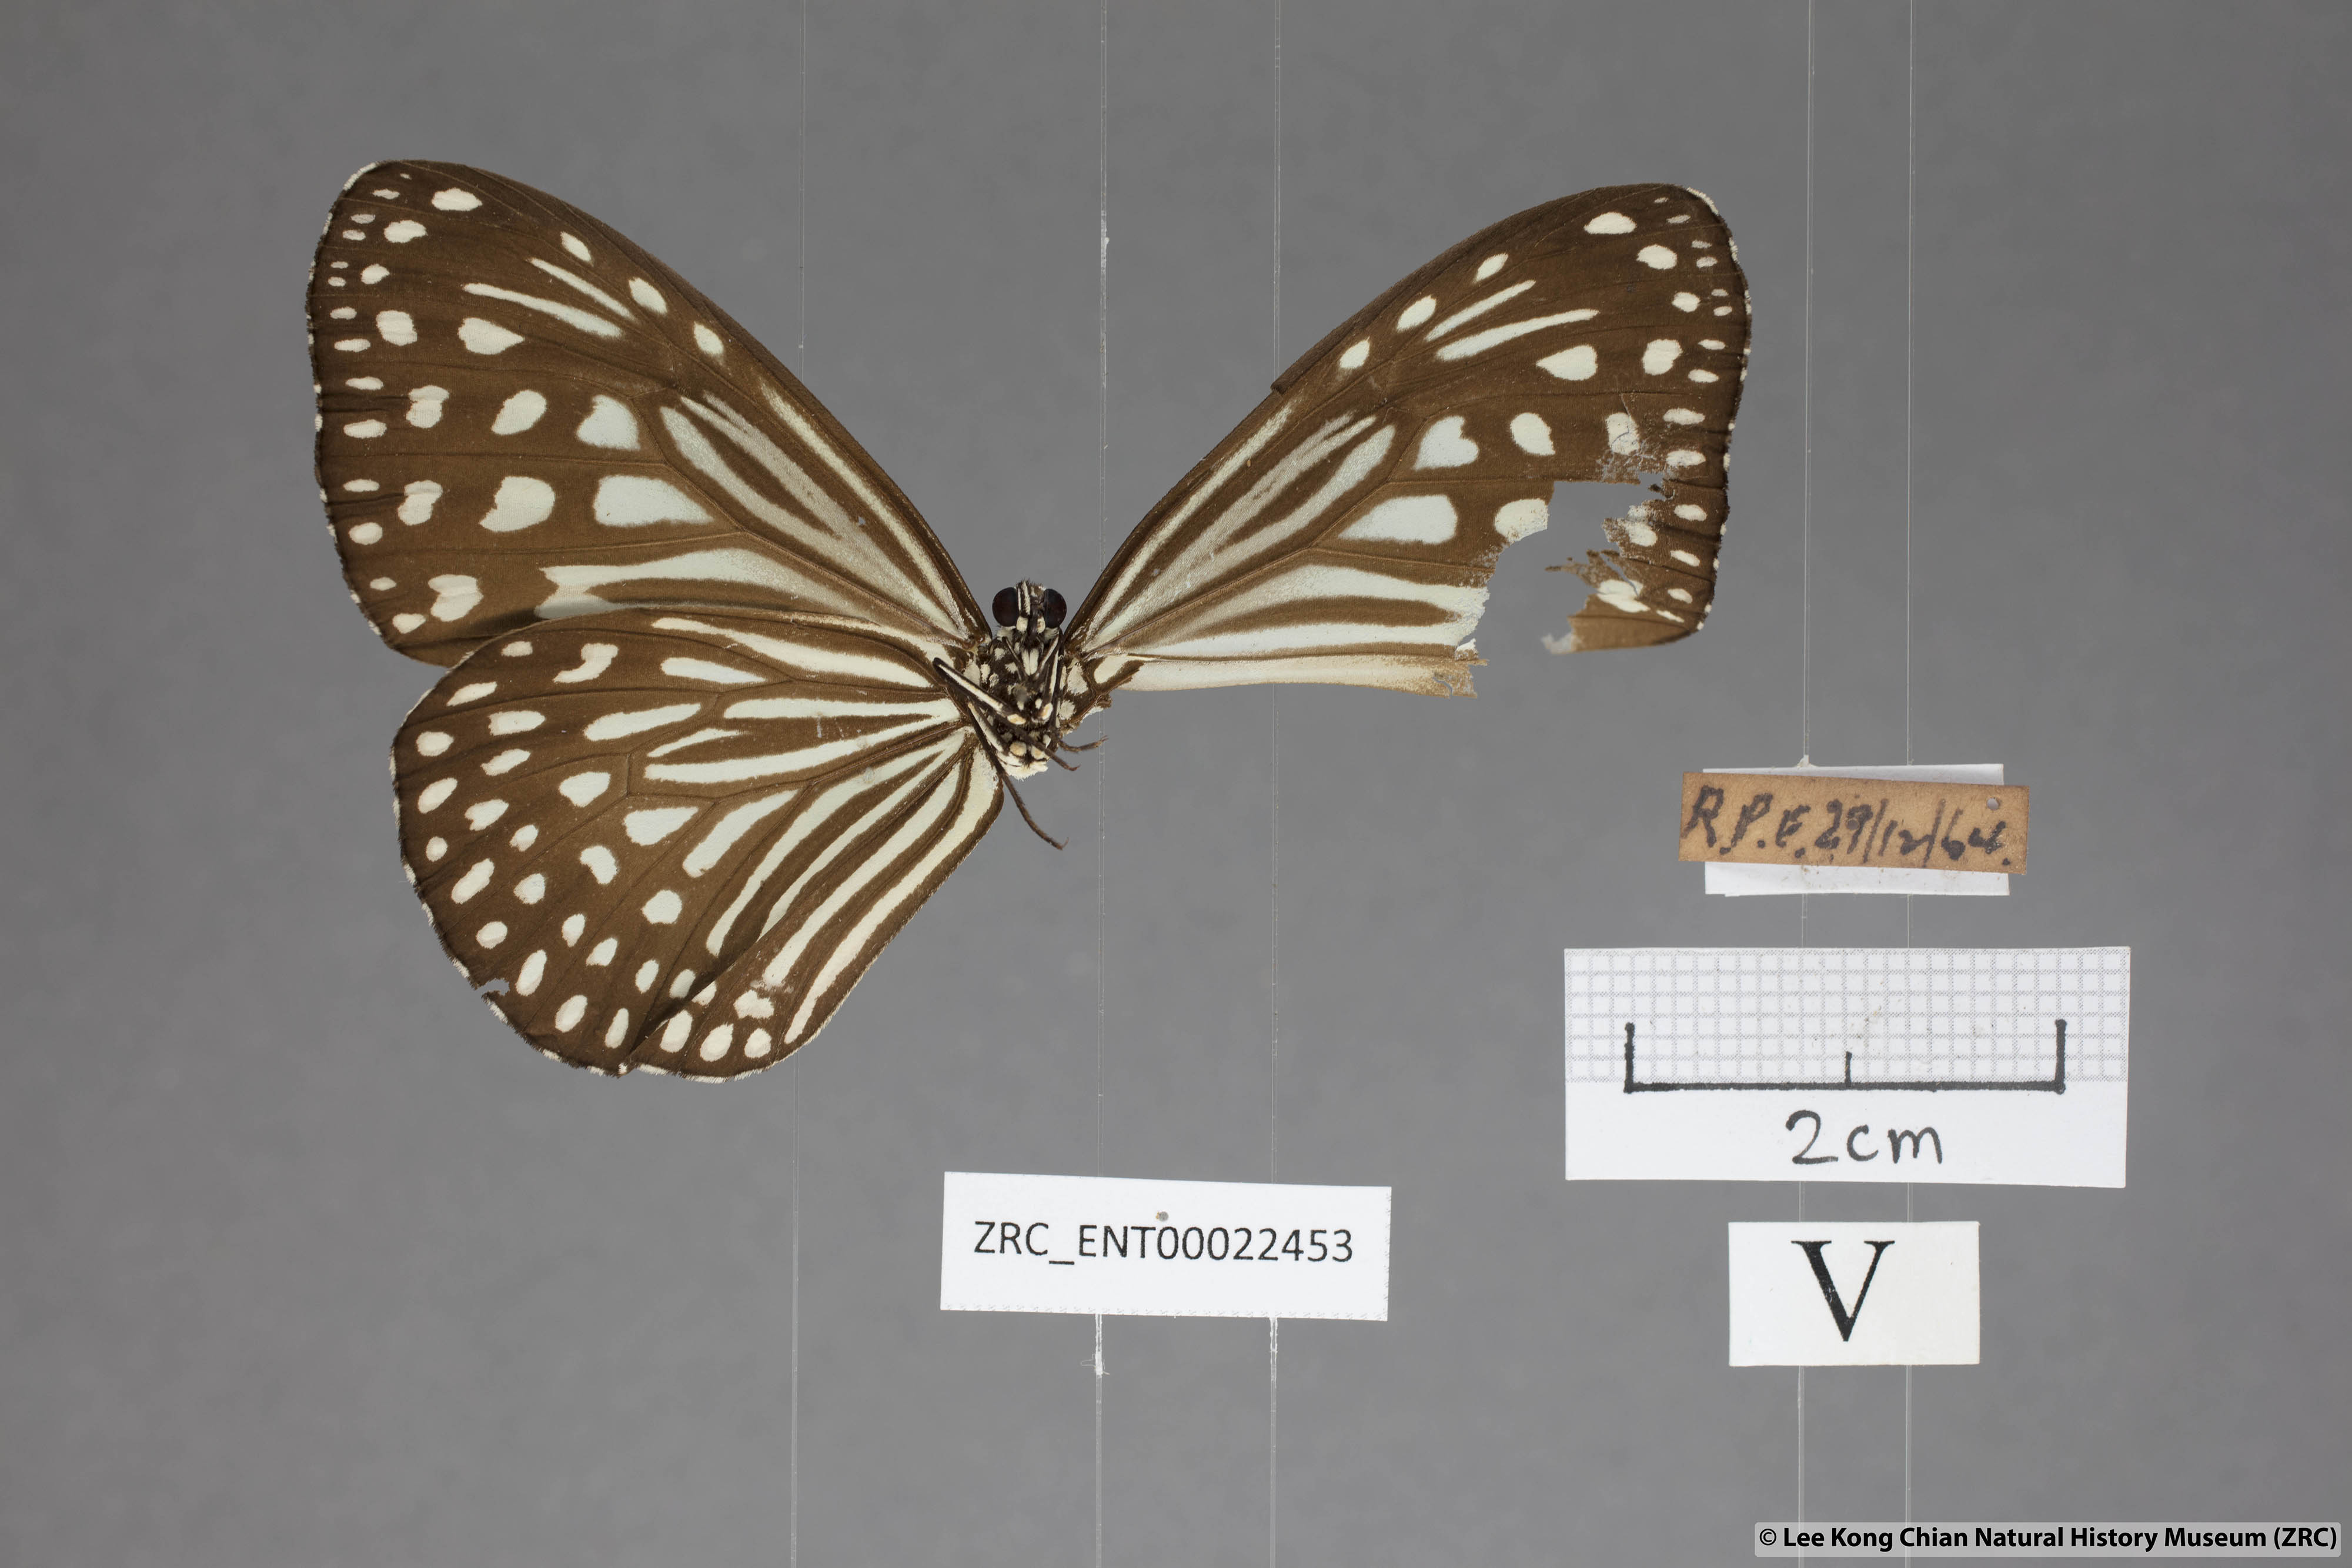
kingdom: Animalia
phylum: Arthropoda
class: Insecta
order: Lepidoptera
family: Nymphalidae
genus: Parantica
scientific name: Parantica agleoides
